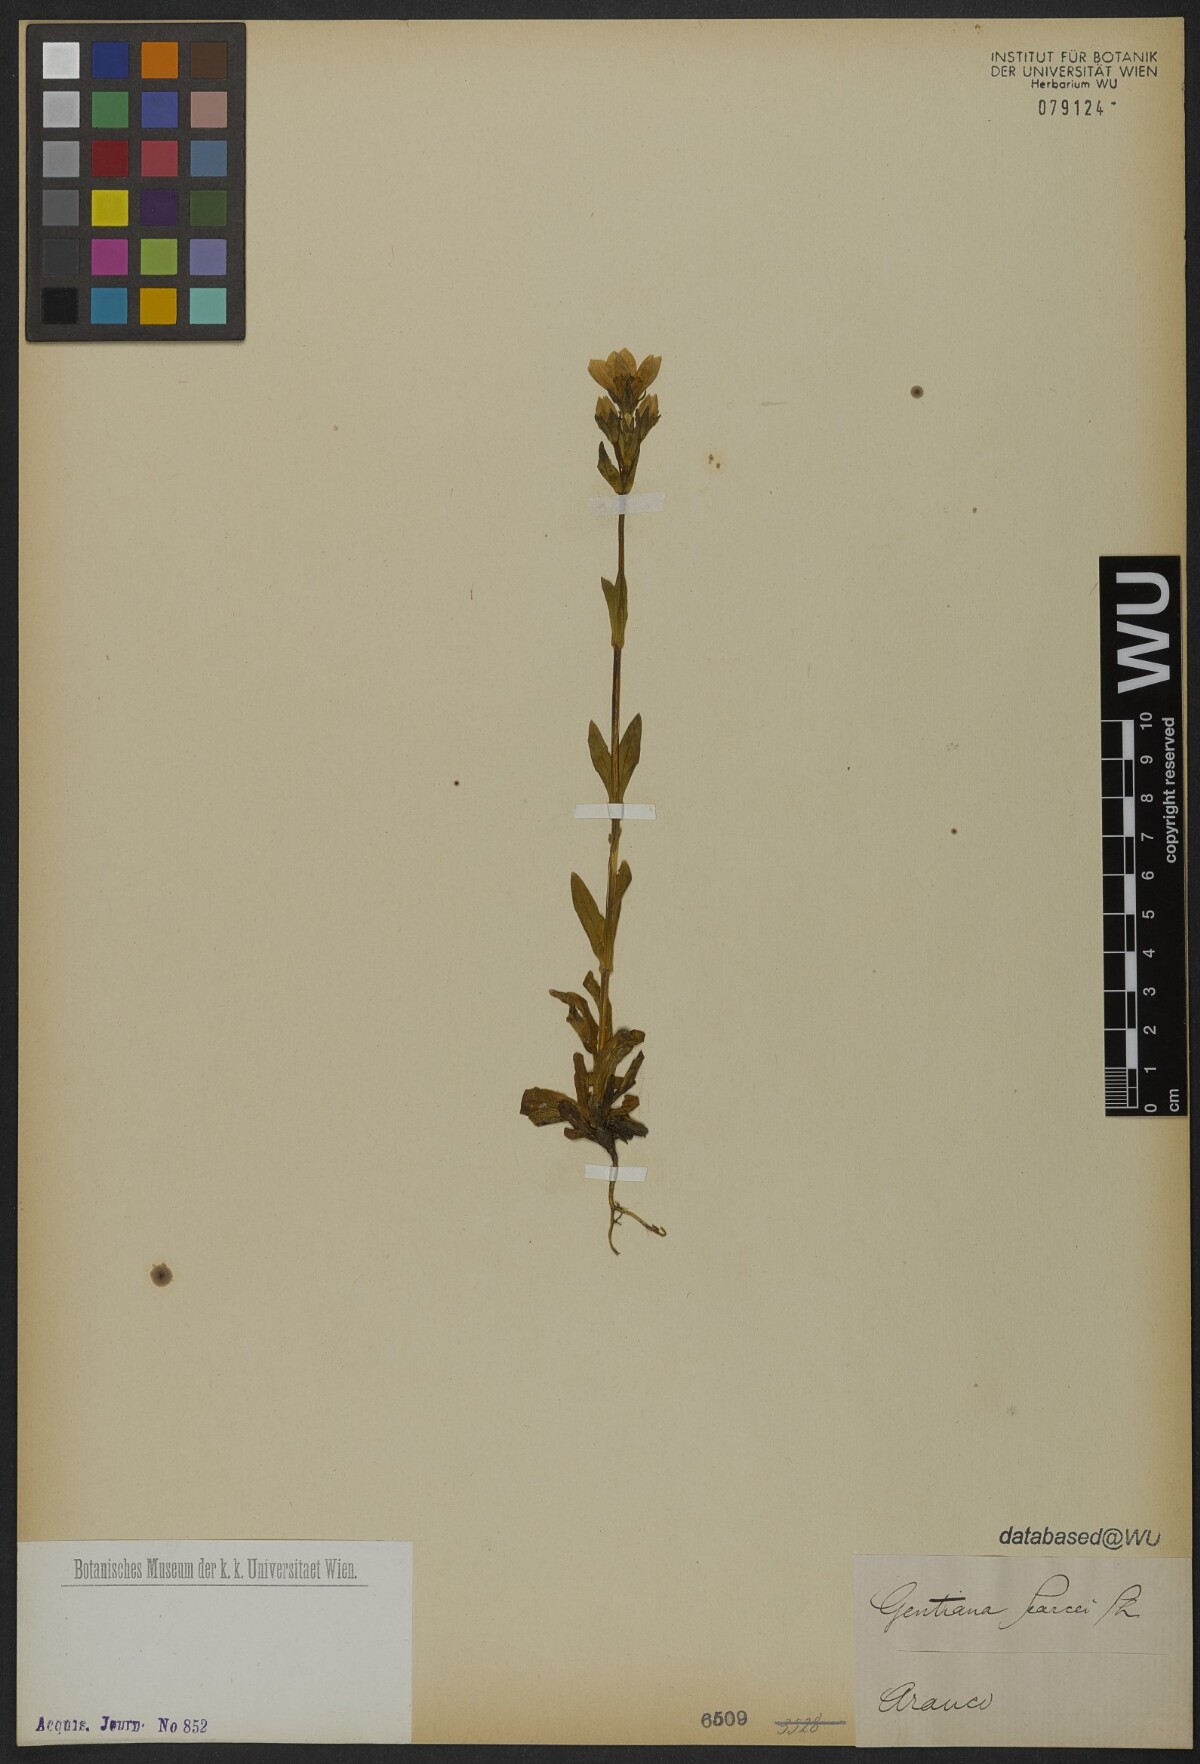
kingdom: Plantae
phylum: Tracheophyta
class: Magnoliopsida
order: Gentianales
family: Gentianaceae
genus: Gentianella
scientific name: Gentianella magellanica
